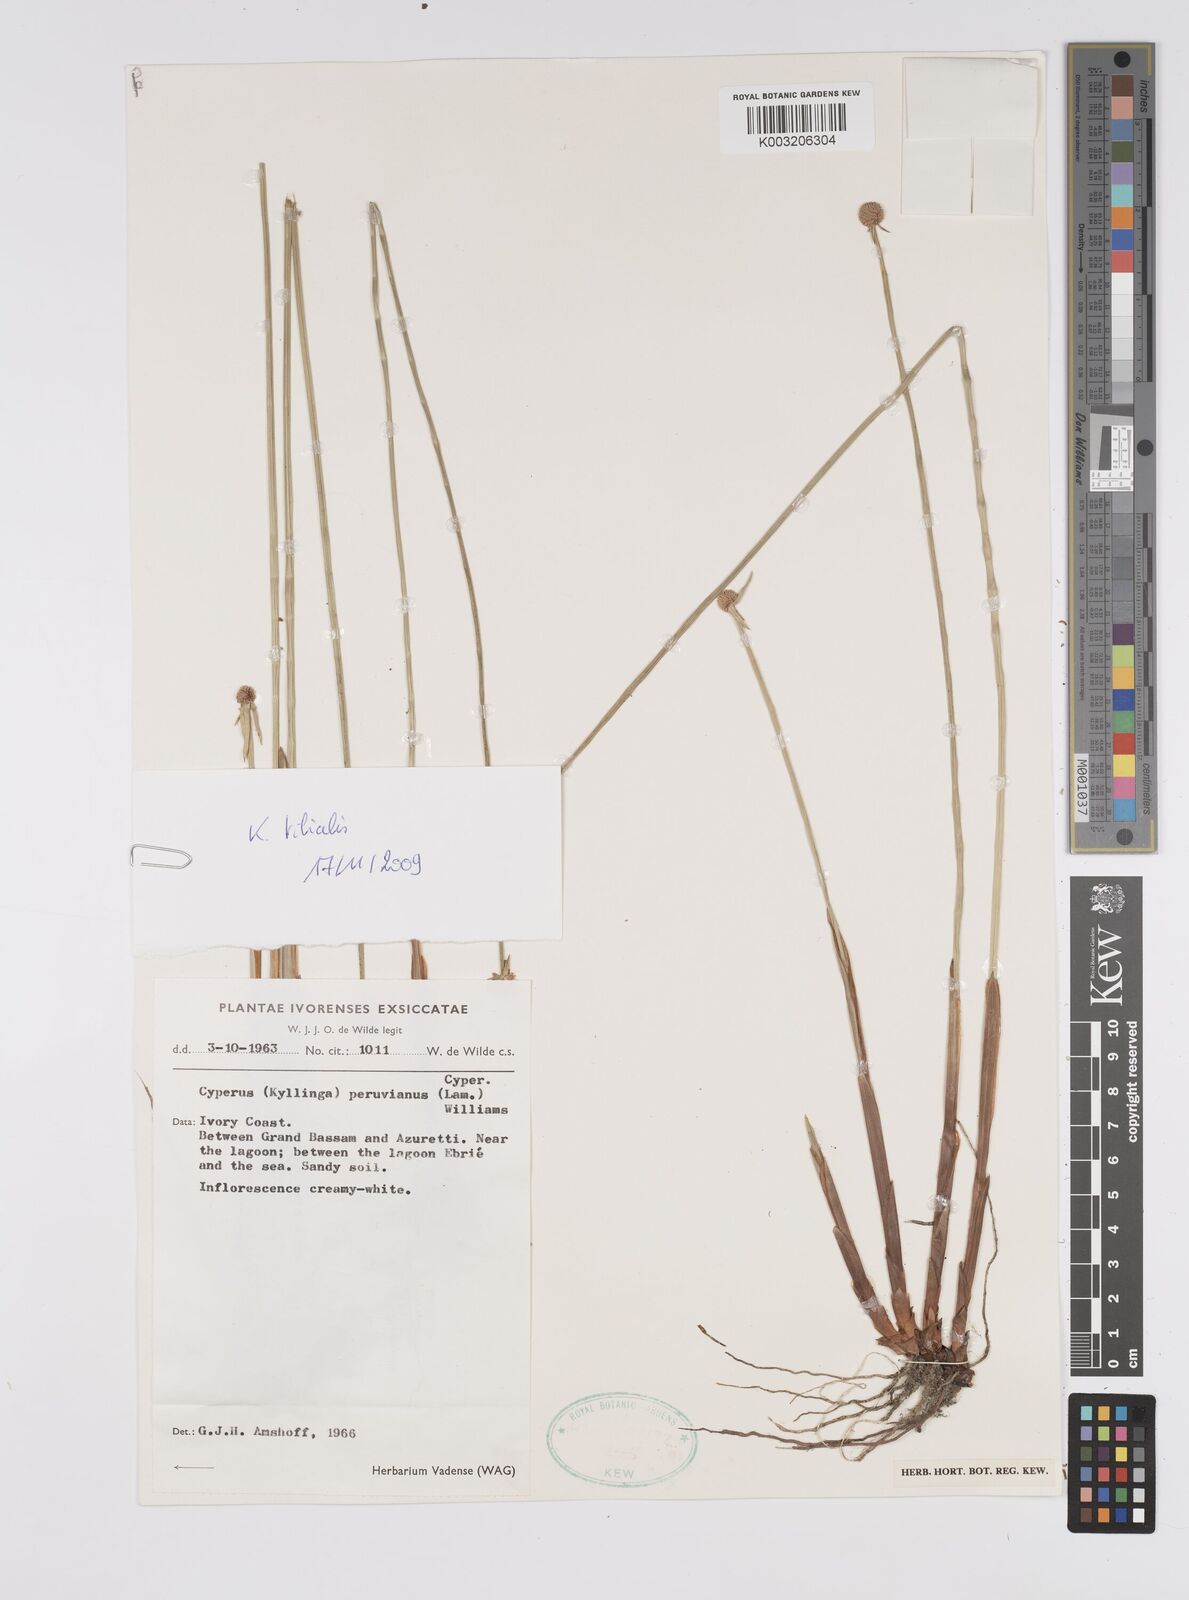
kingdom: Plantae
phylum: Tracheophyta
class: Liliopsida
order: Poales
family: Cyperaceae
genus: Cyperus
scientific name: Cyperus obtusatus
